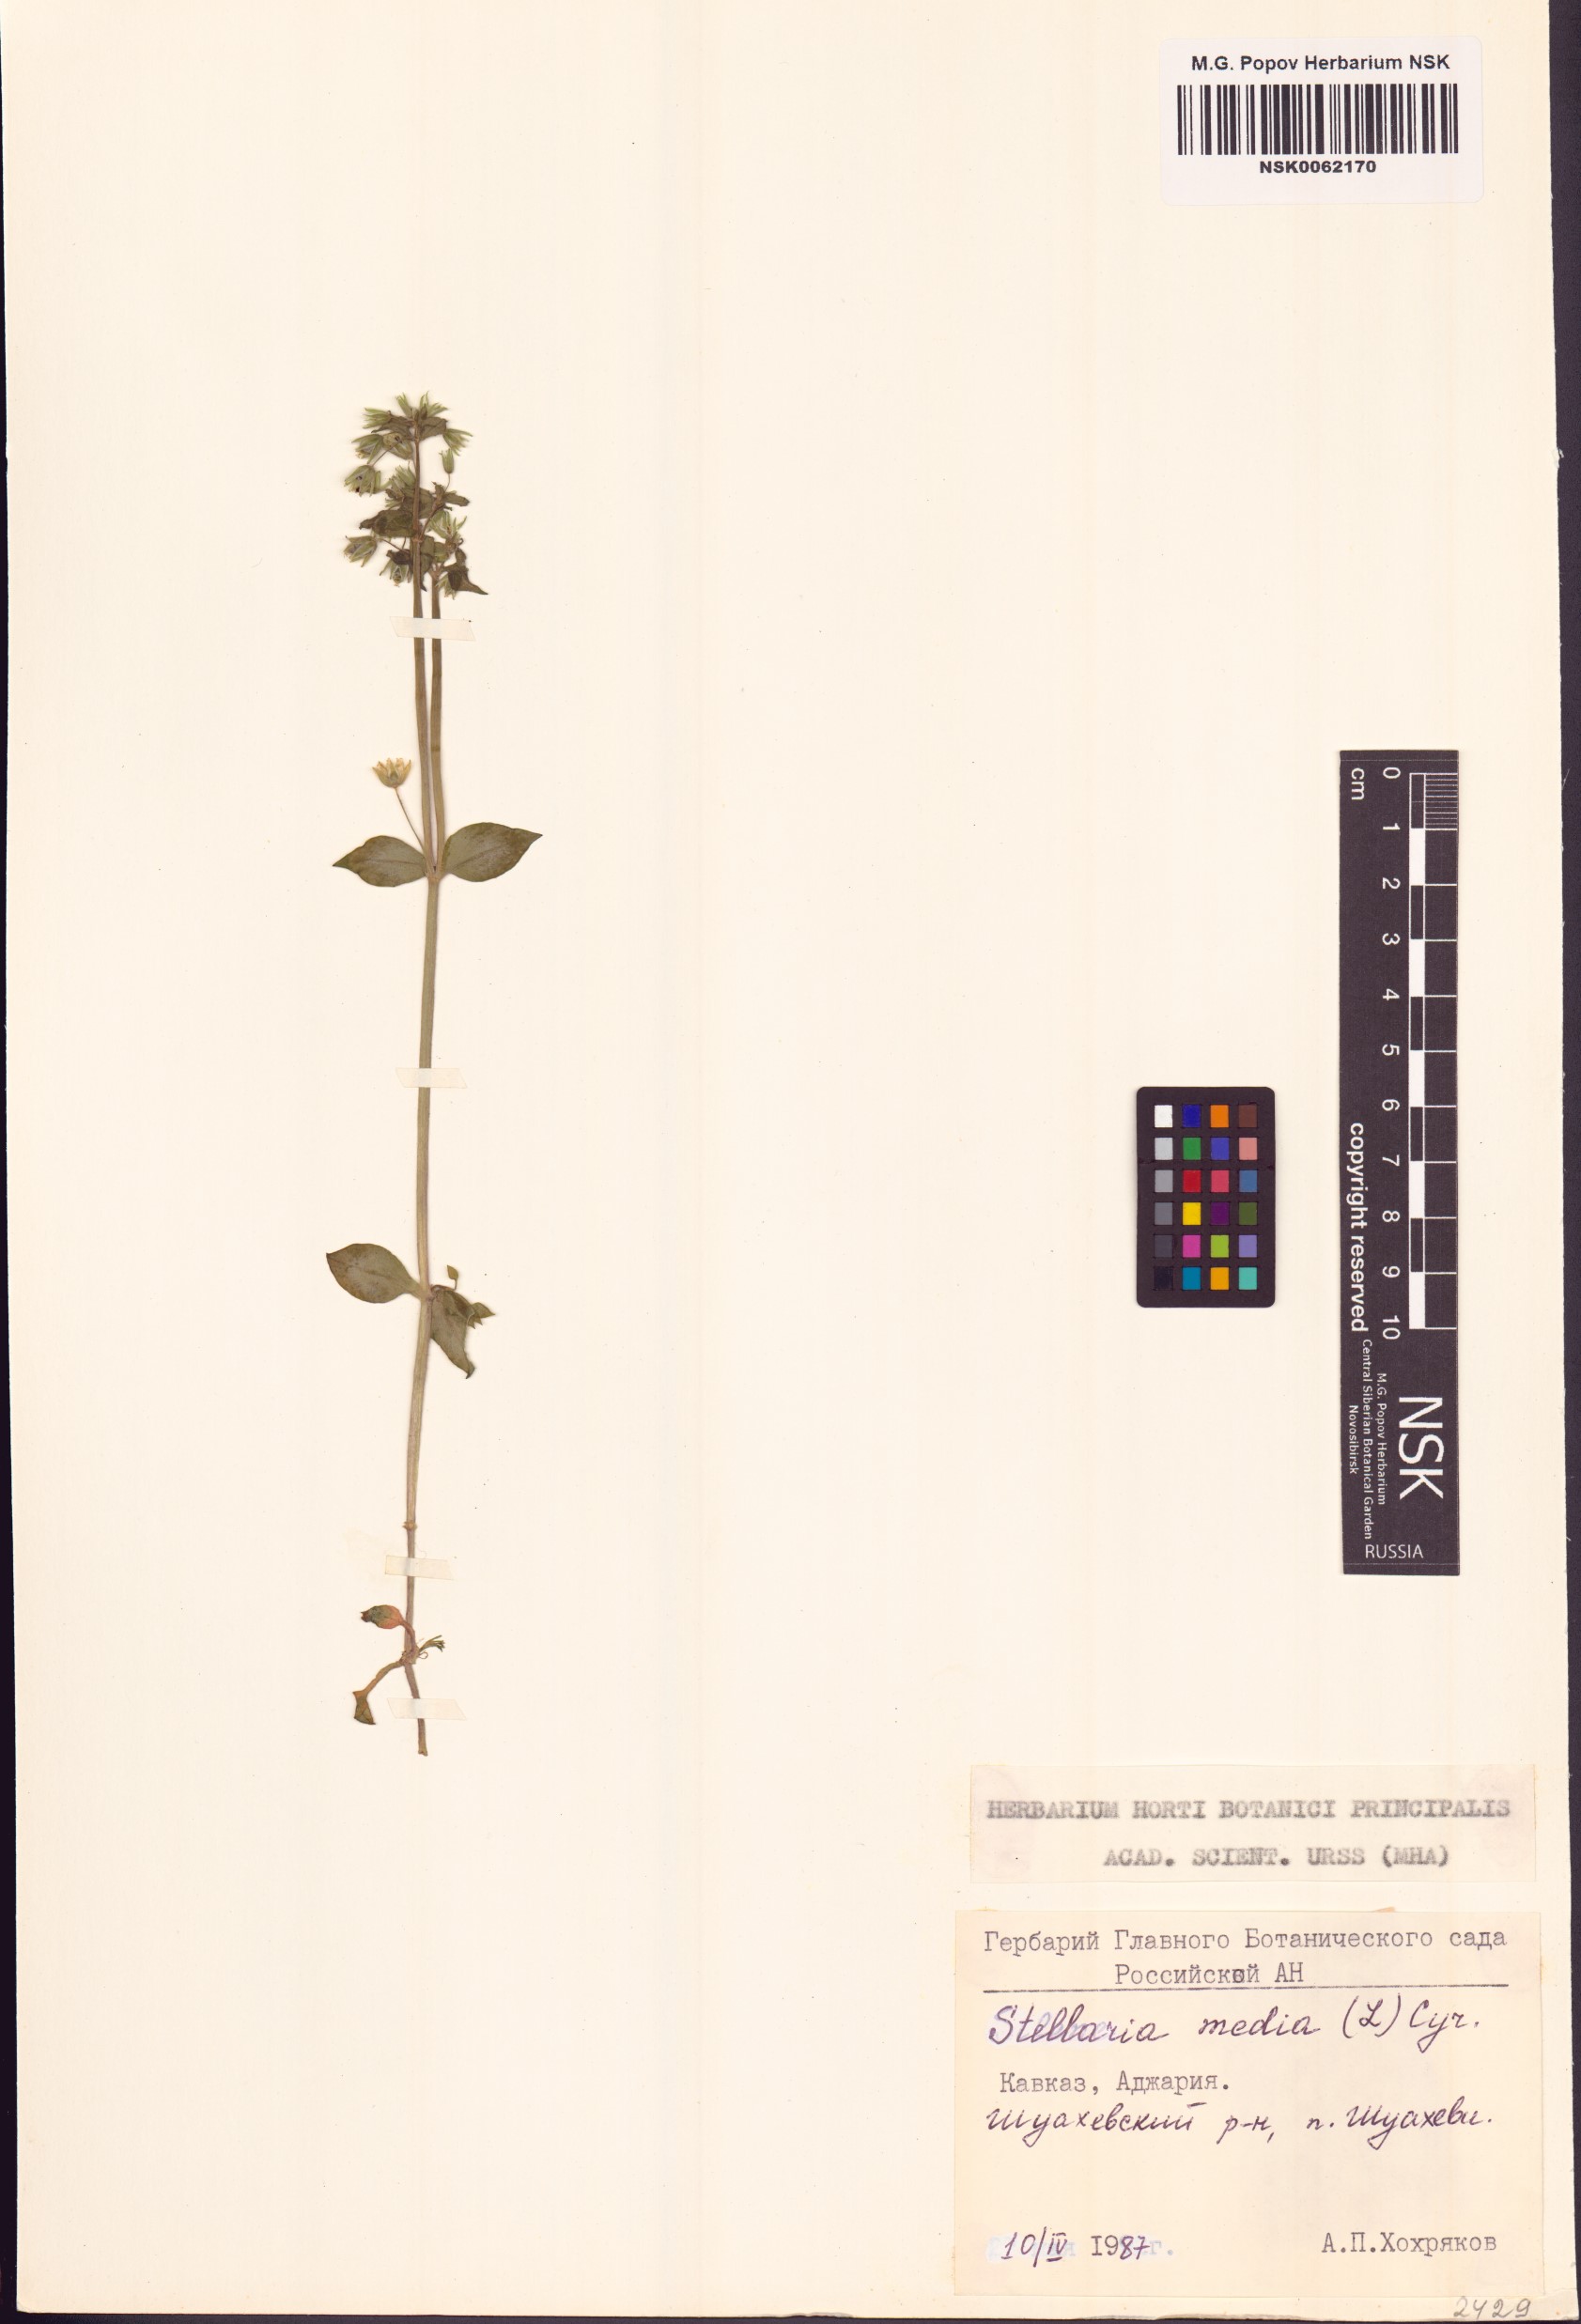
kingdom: Plantae
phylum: Tracheophyta
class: Magnoliopsida
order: Caryophyllales
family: Caryophyllaceae
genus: Stellaria
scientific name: Stellaria media
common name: Common chickweed
